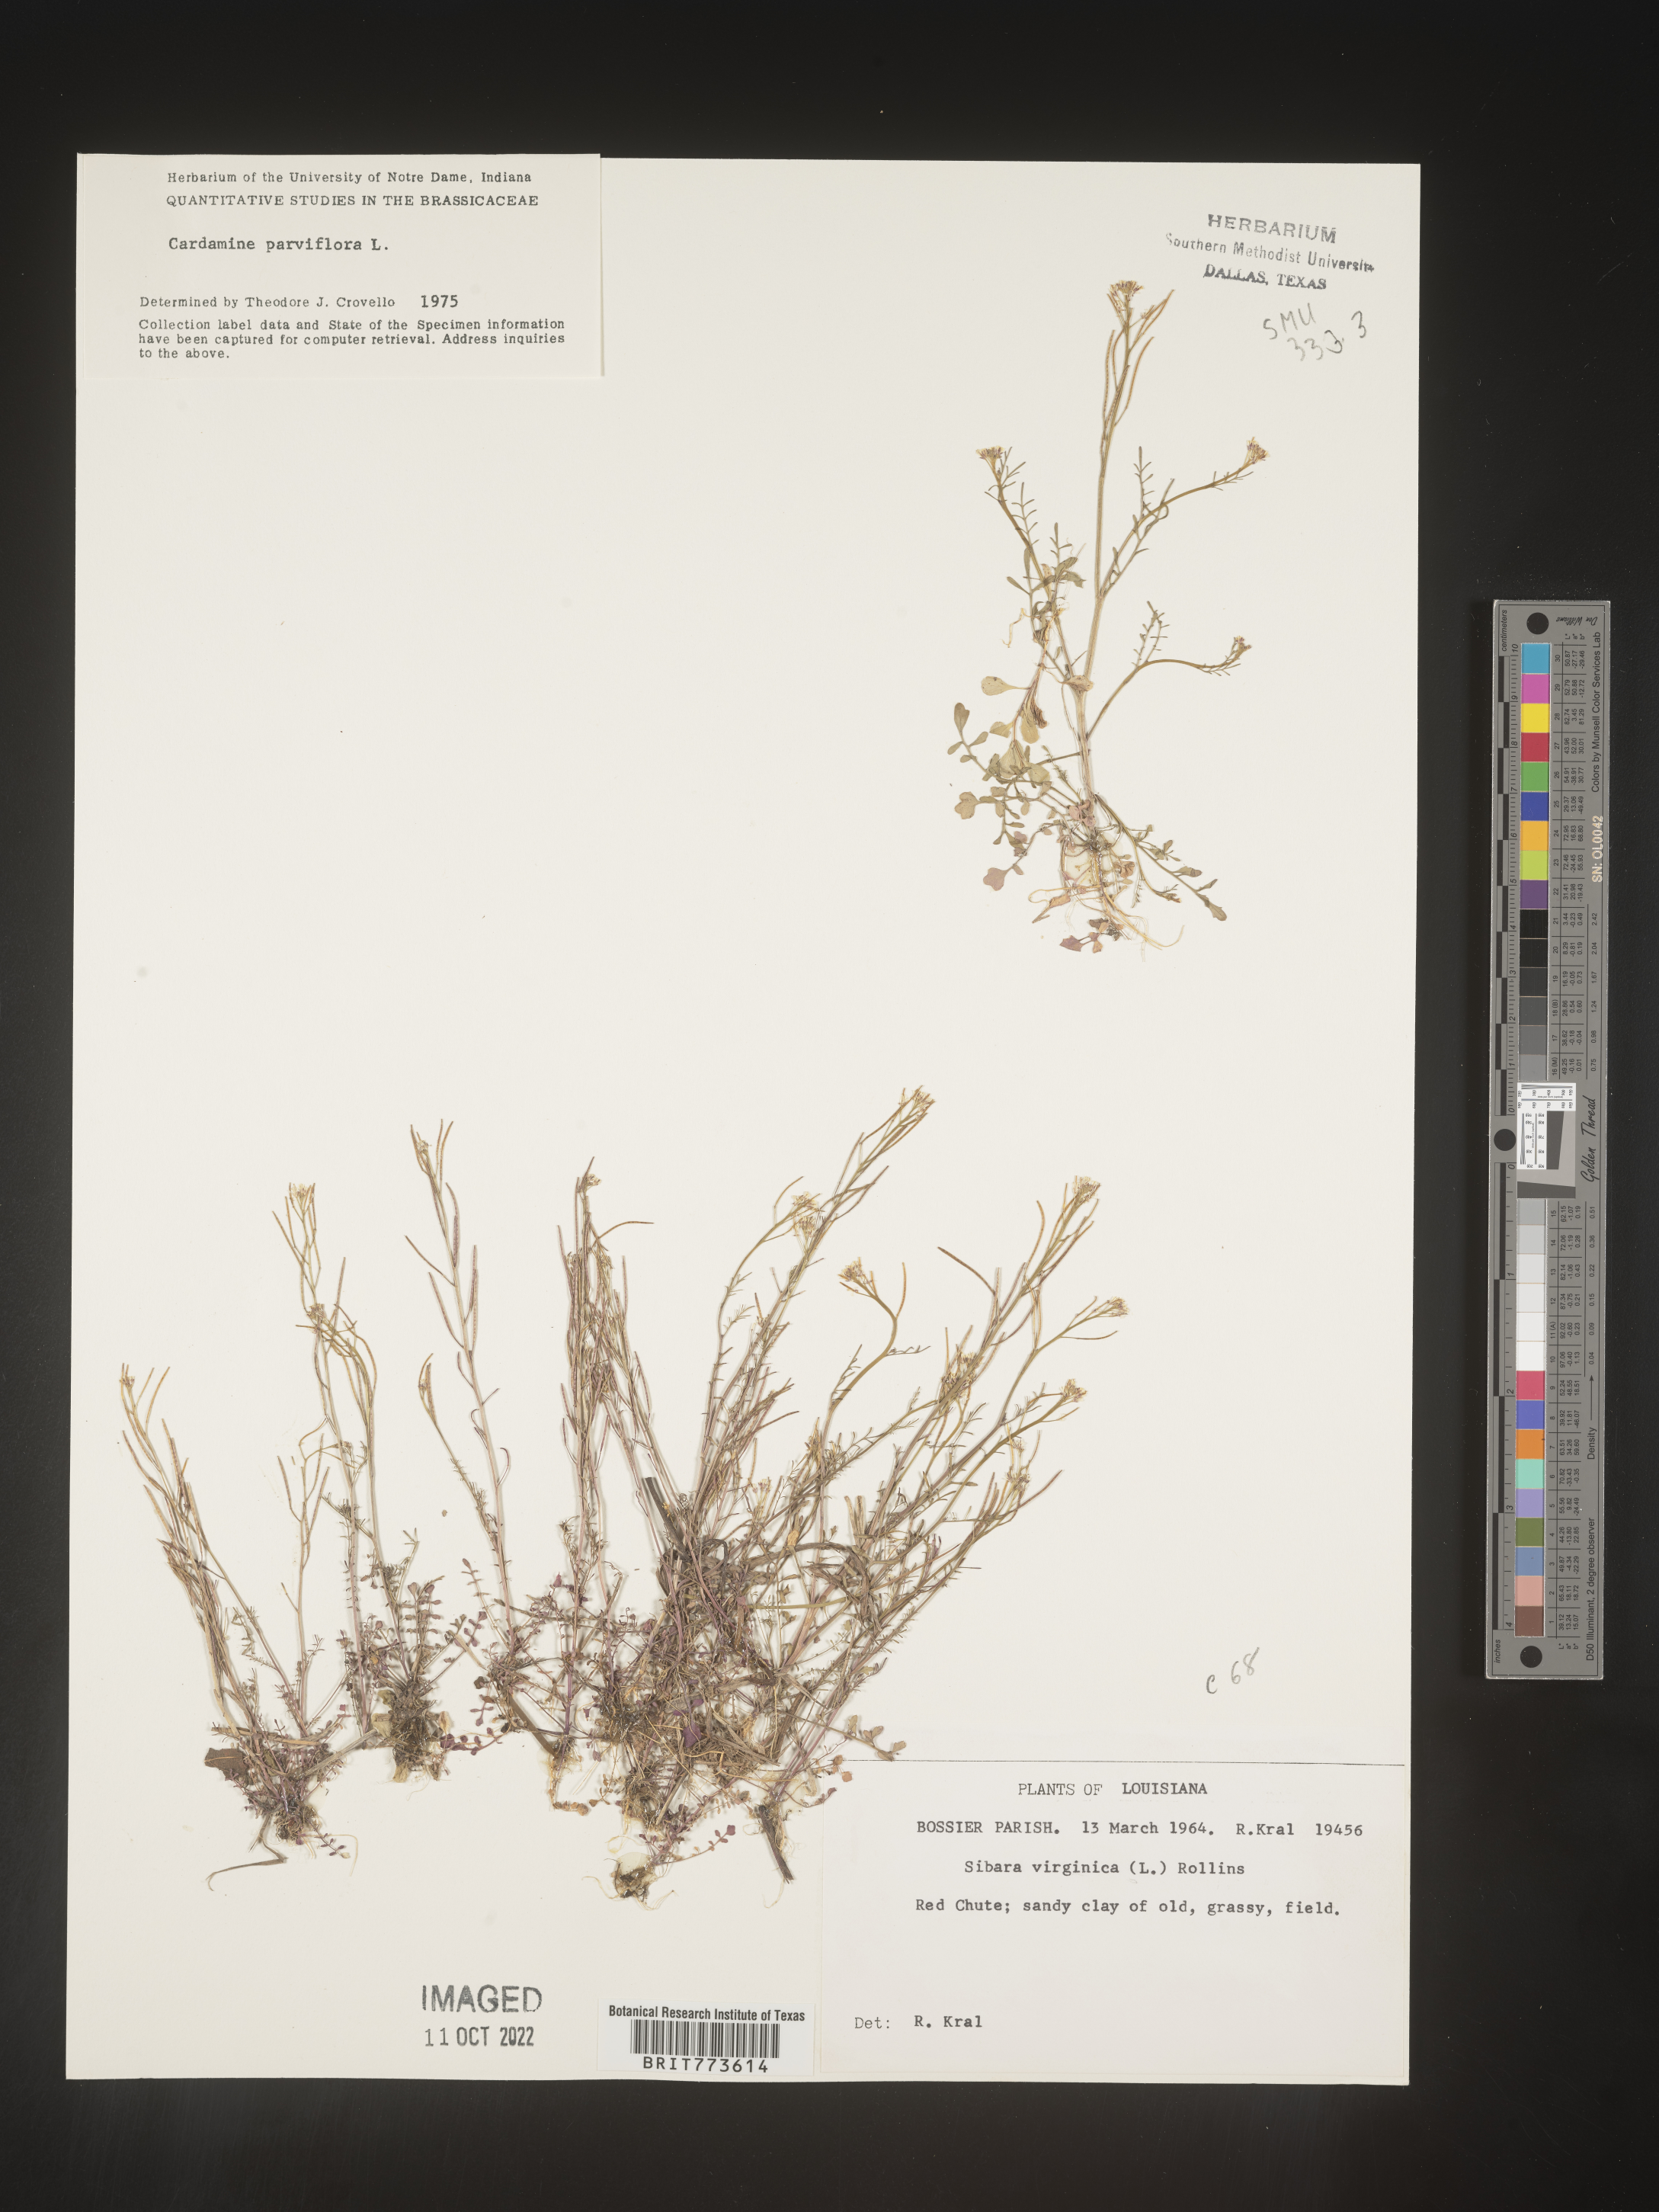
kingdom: Plantae
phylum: Tracheophyta
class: Magnoliopsida
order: Brassicales
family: Brassicaceae
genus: Cardamine
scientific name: Cardamine parviflora
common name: Sand bittercress
